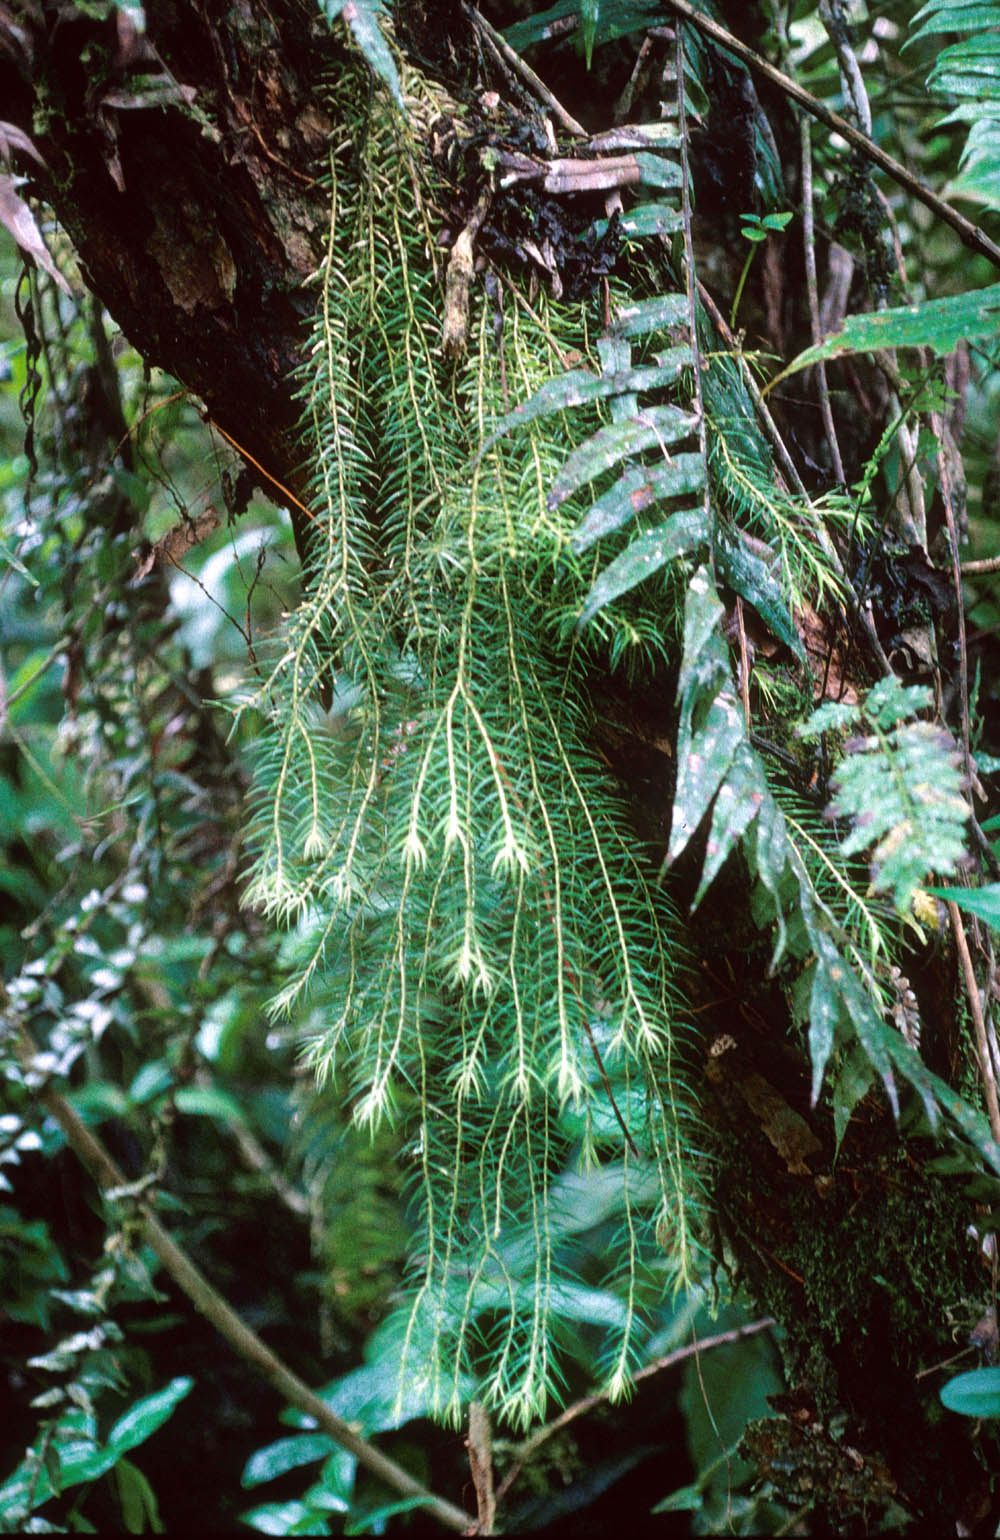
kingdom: Plantae
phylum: Tracheophyta
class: Lycopodiopsida
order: Lycopodiales
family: Lycopodiaceae
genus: Phlegmariurus
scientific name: Phlegmariurus linifolius
